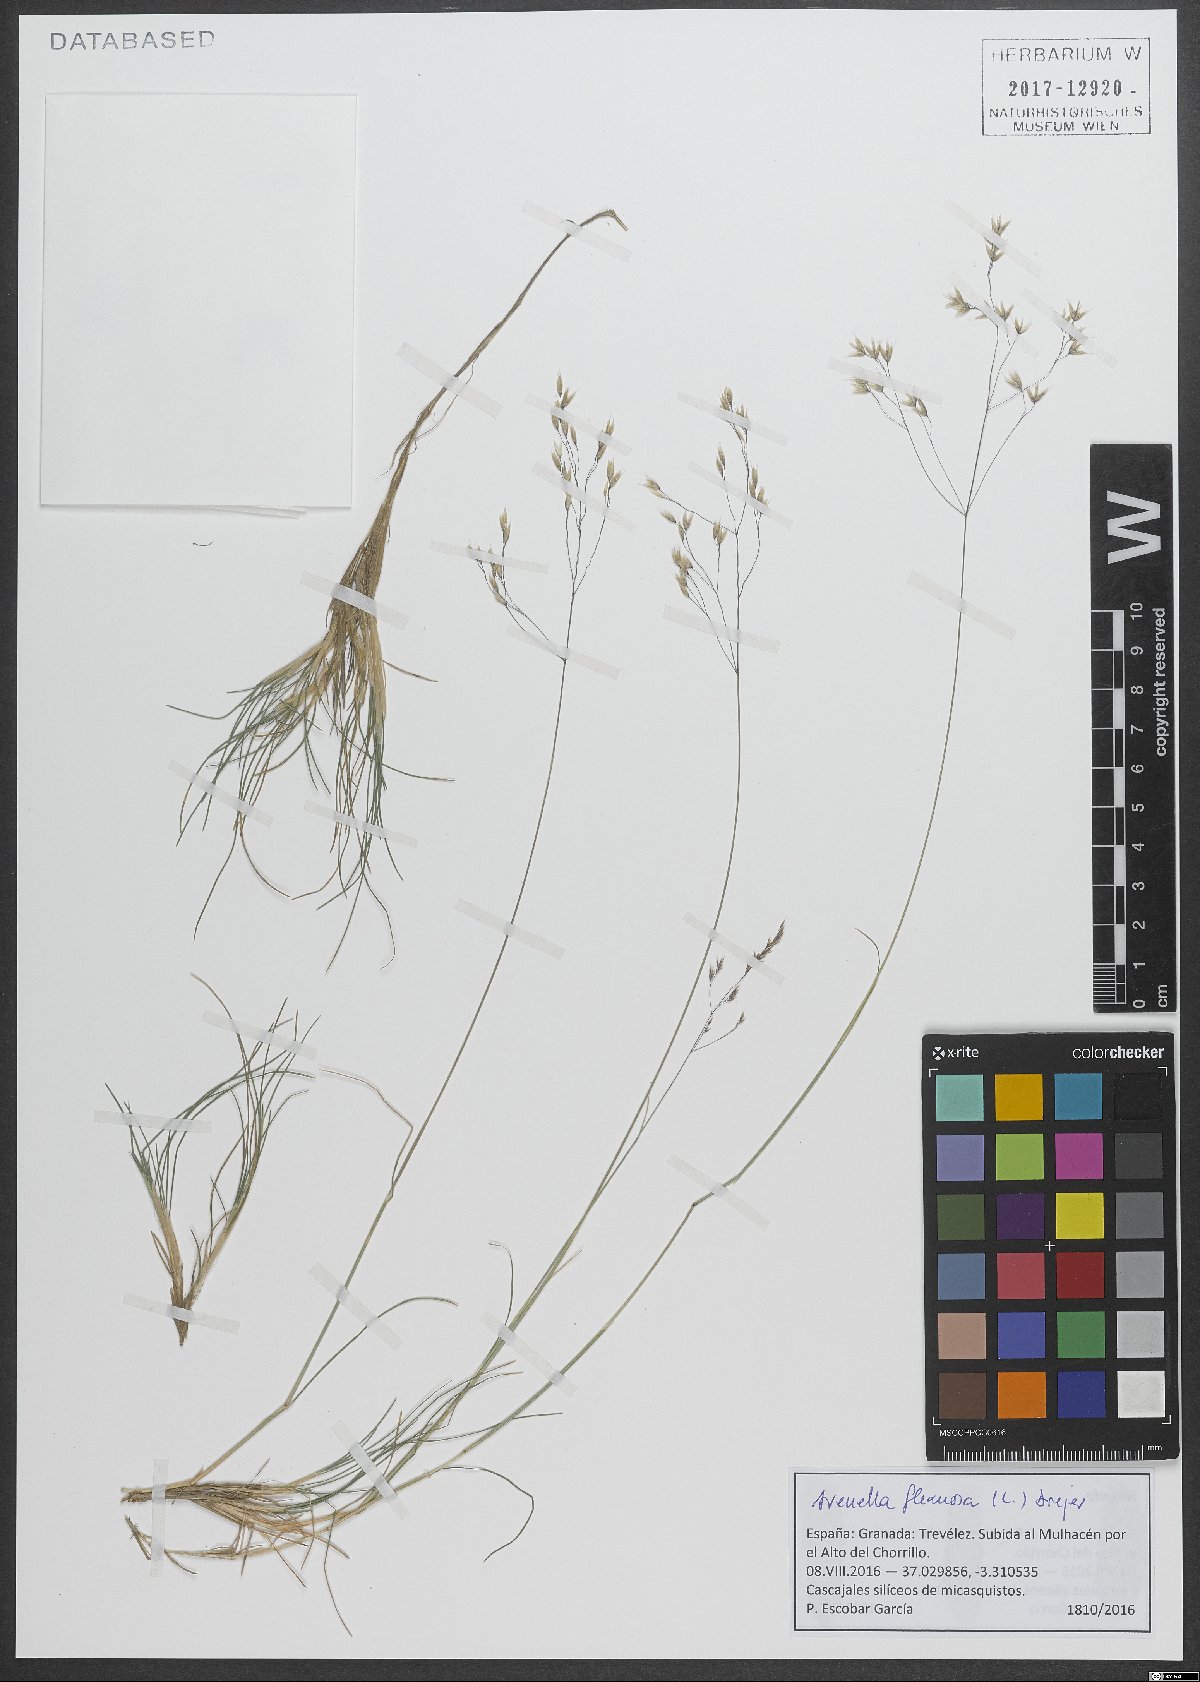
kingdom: Plantae
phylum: Tracheophyta
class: Liliopsida
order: Poales
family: Poaceae
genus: Avenella
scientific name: Avenella flexuosa
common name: Wavy hairgrass
